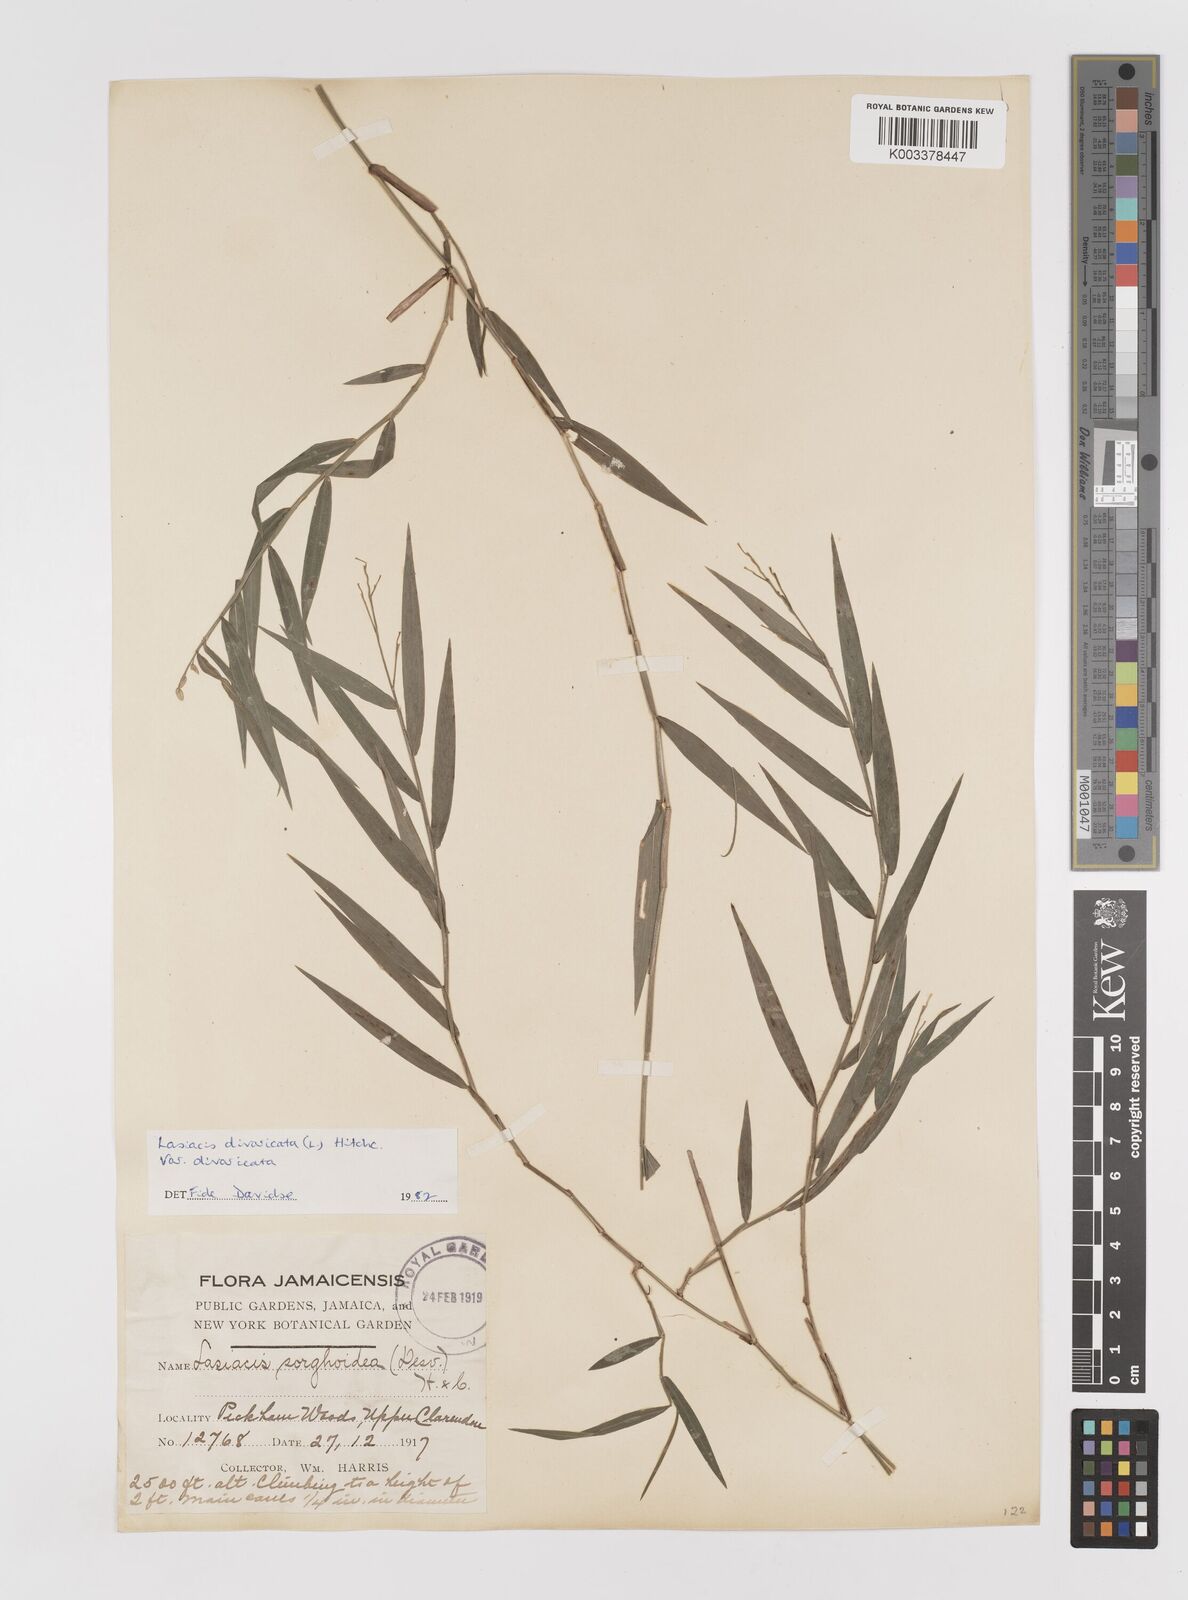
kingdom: Plantae
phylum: Tracheophyta
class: Liliopsida
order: Poales
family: Poaceae
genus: Lasiacis
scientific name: Lasiacis divaricata
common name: Smallcane
